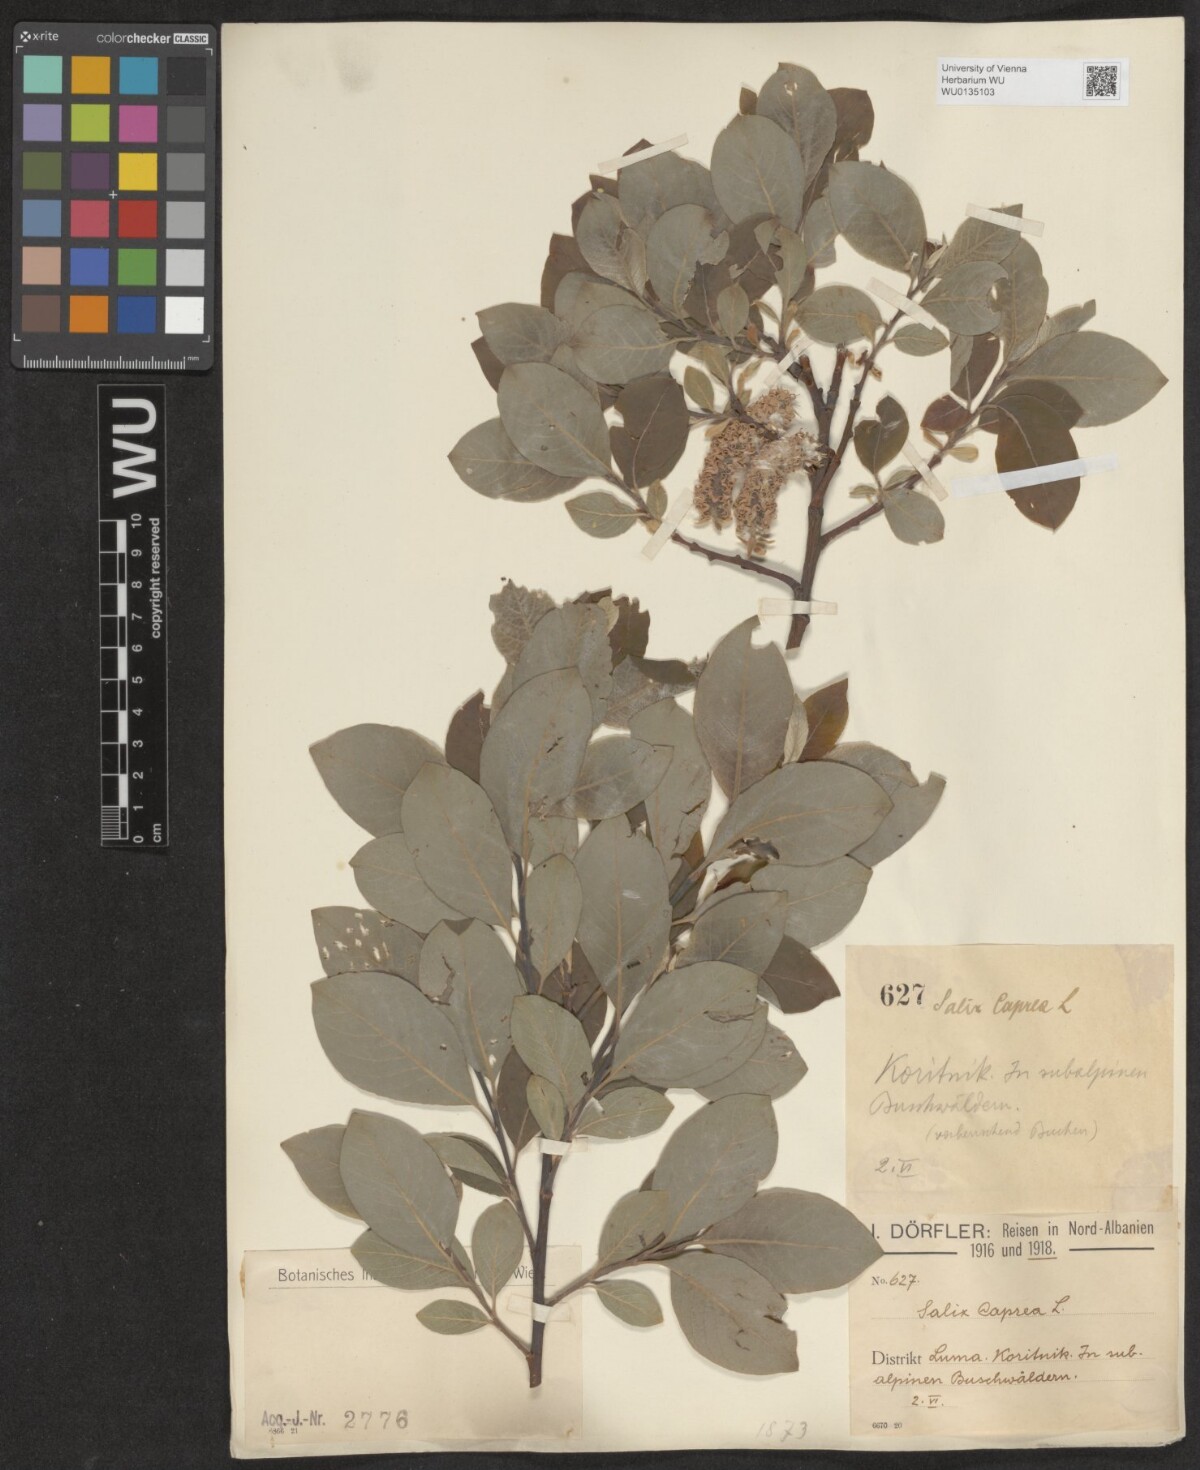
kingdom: Plantae
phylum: Tracheophyta
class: Magnoliopsida
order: Malpighiales
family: Salicaceae
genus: Salix
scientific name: Salix caprea
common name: Goat willow
